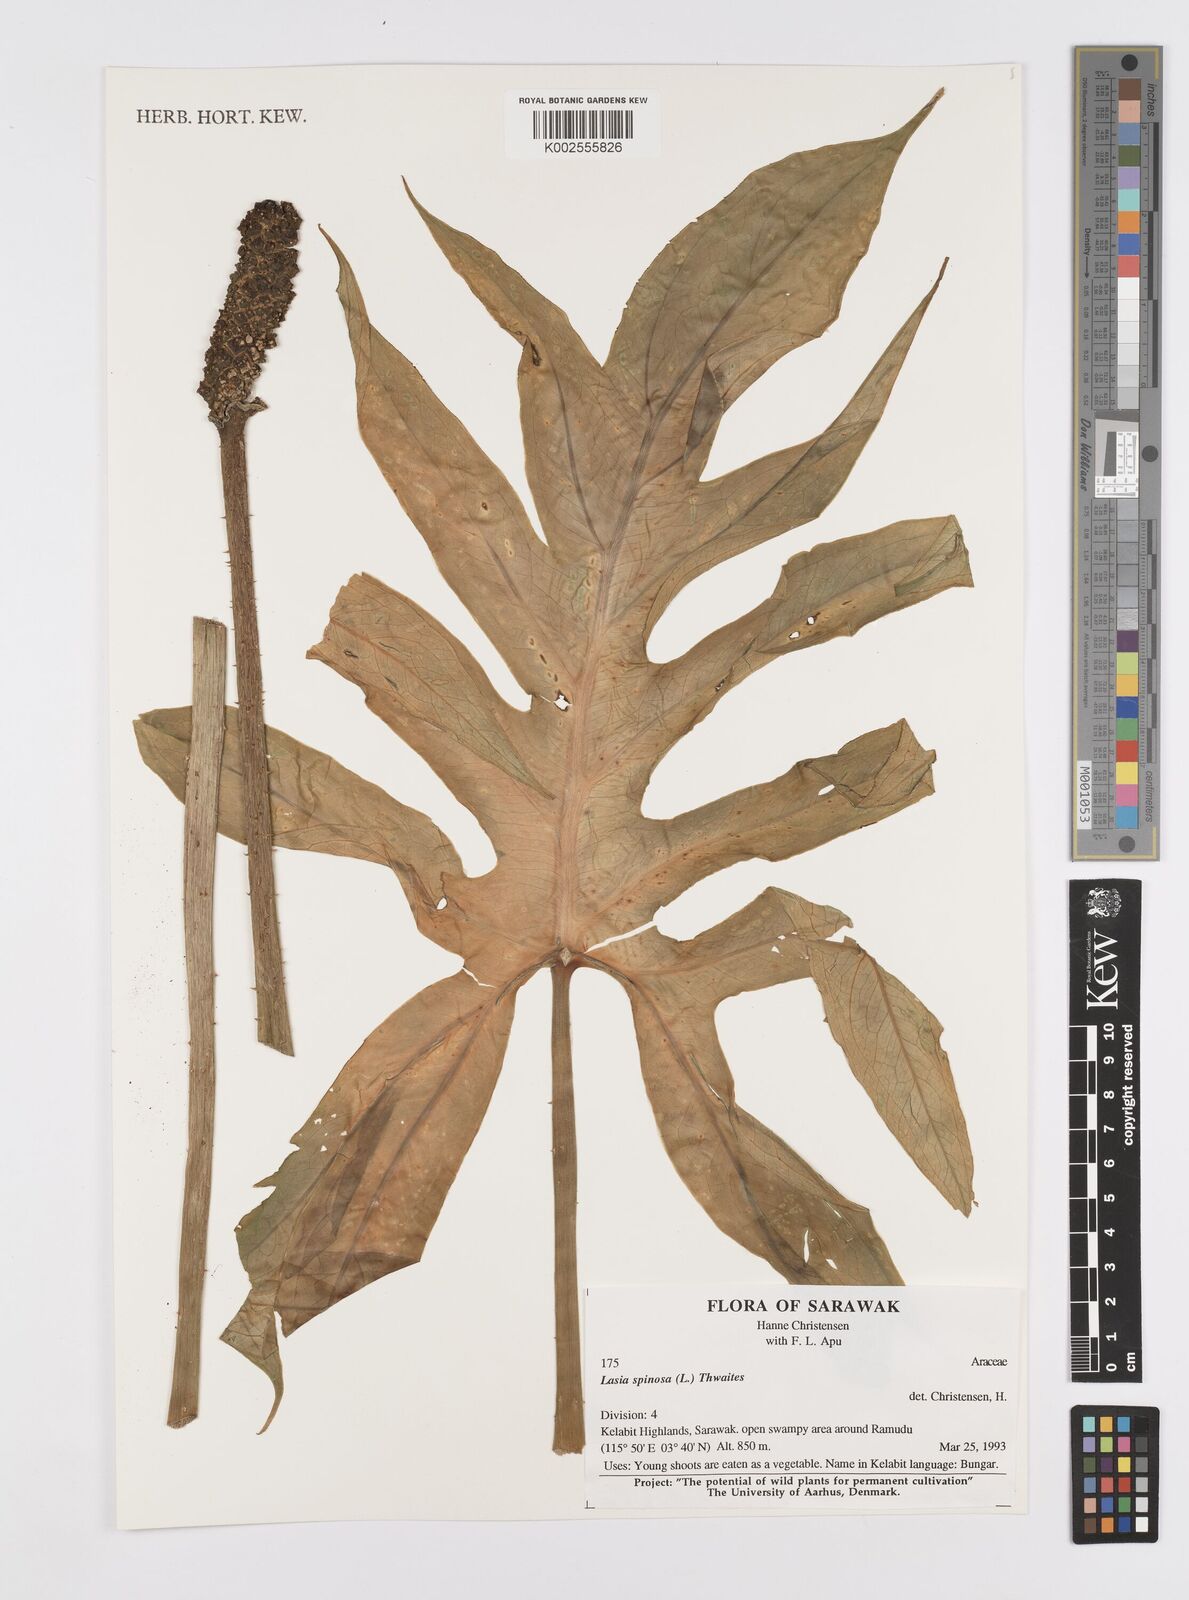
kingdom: Plantae
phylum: Tracheophyta
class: Liliopsida
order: Alismatales
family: Araceae
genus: Lasia
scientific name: Lasia spinosa
